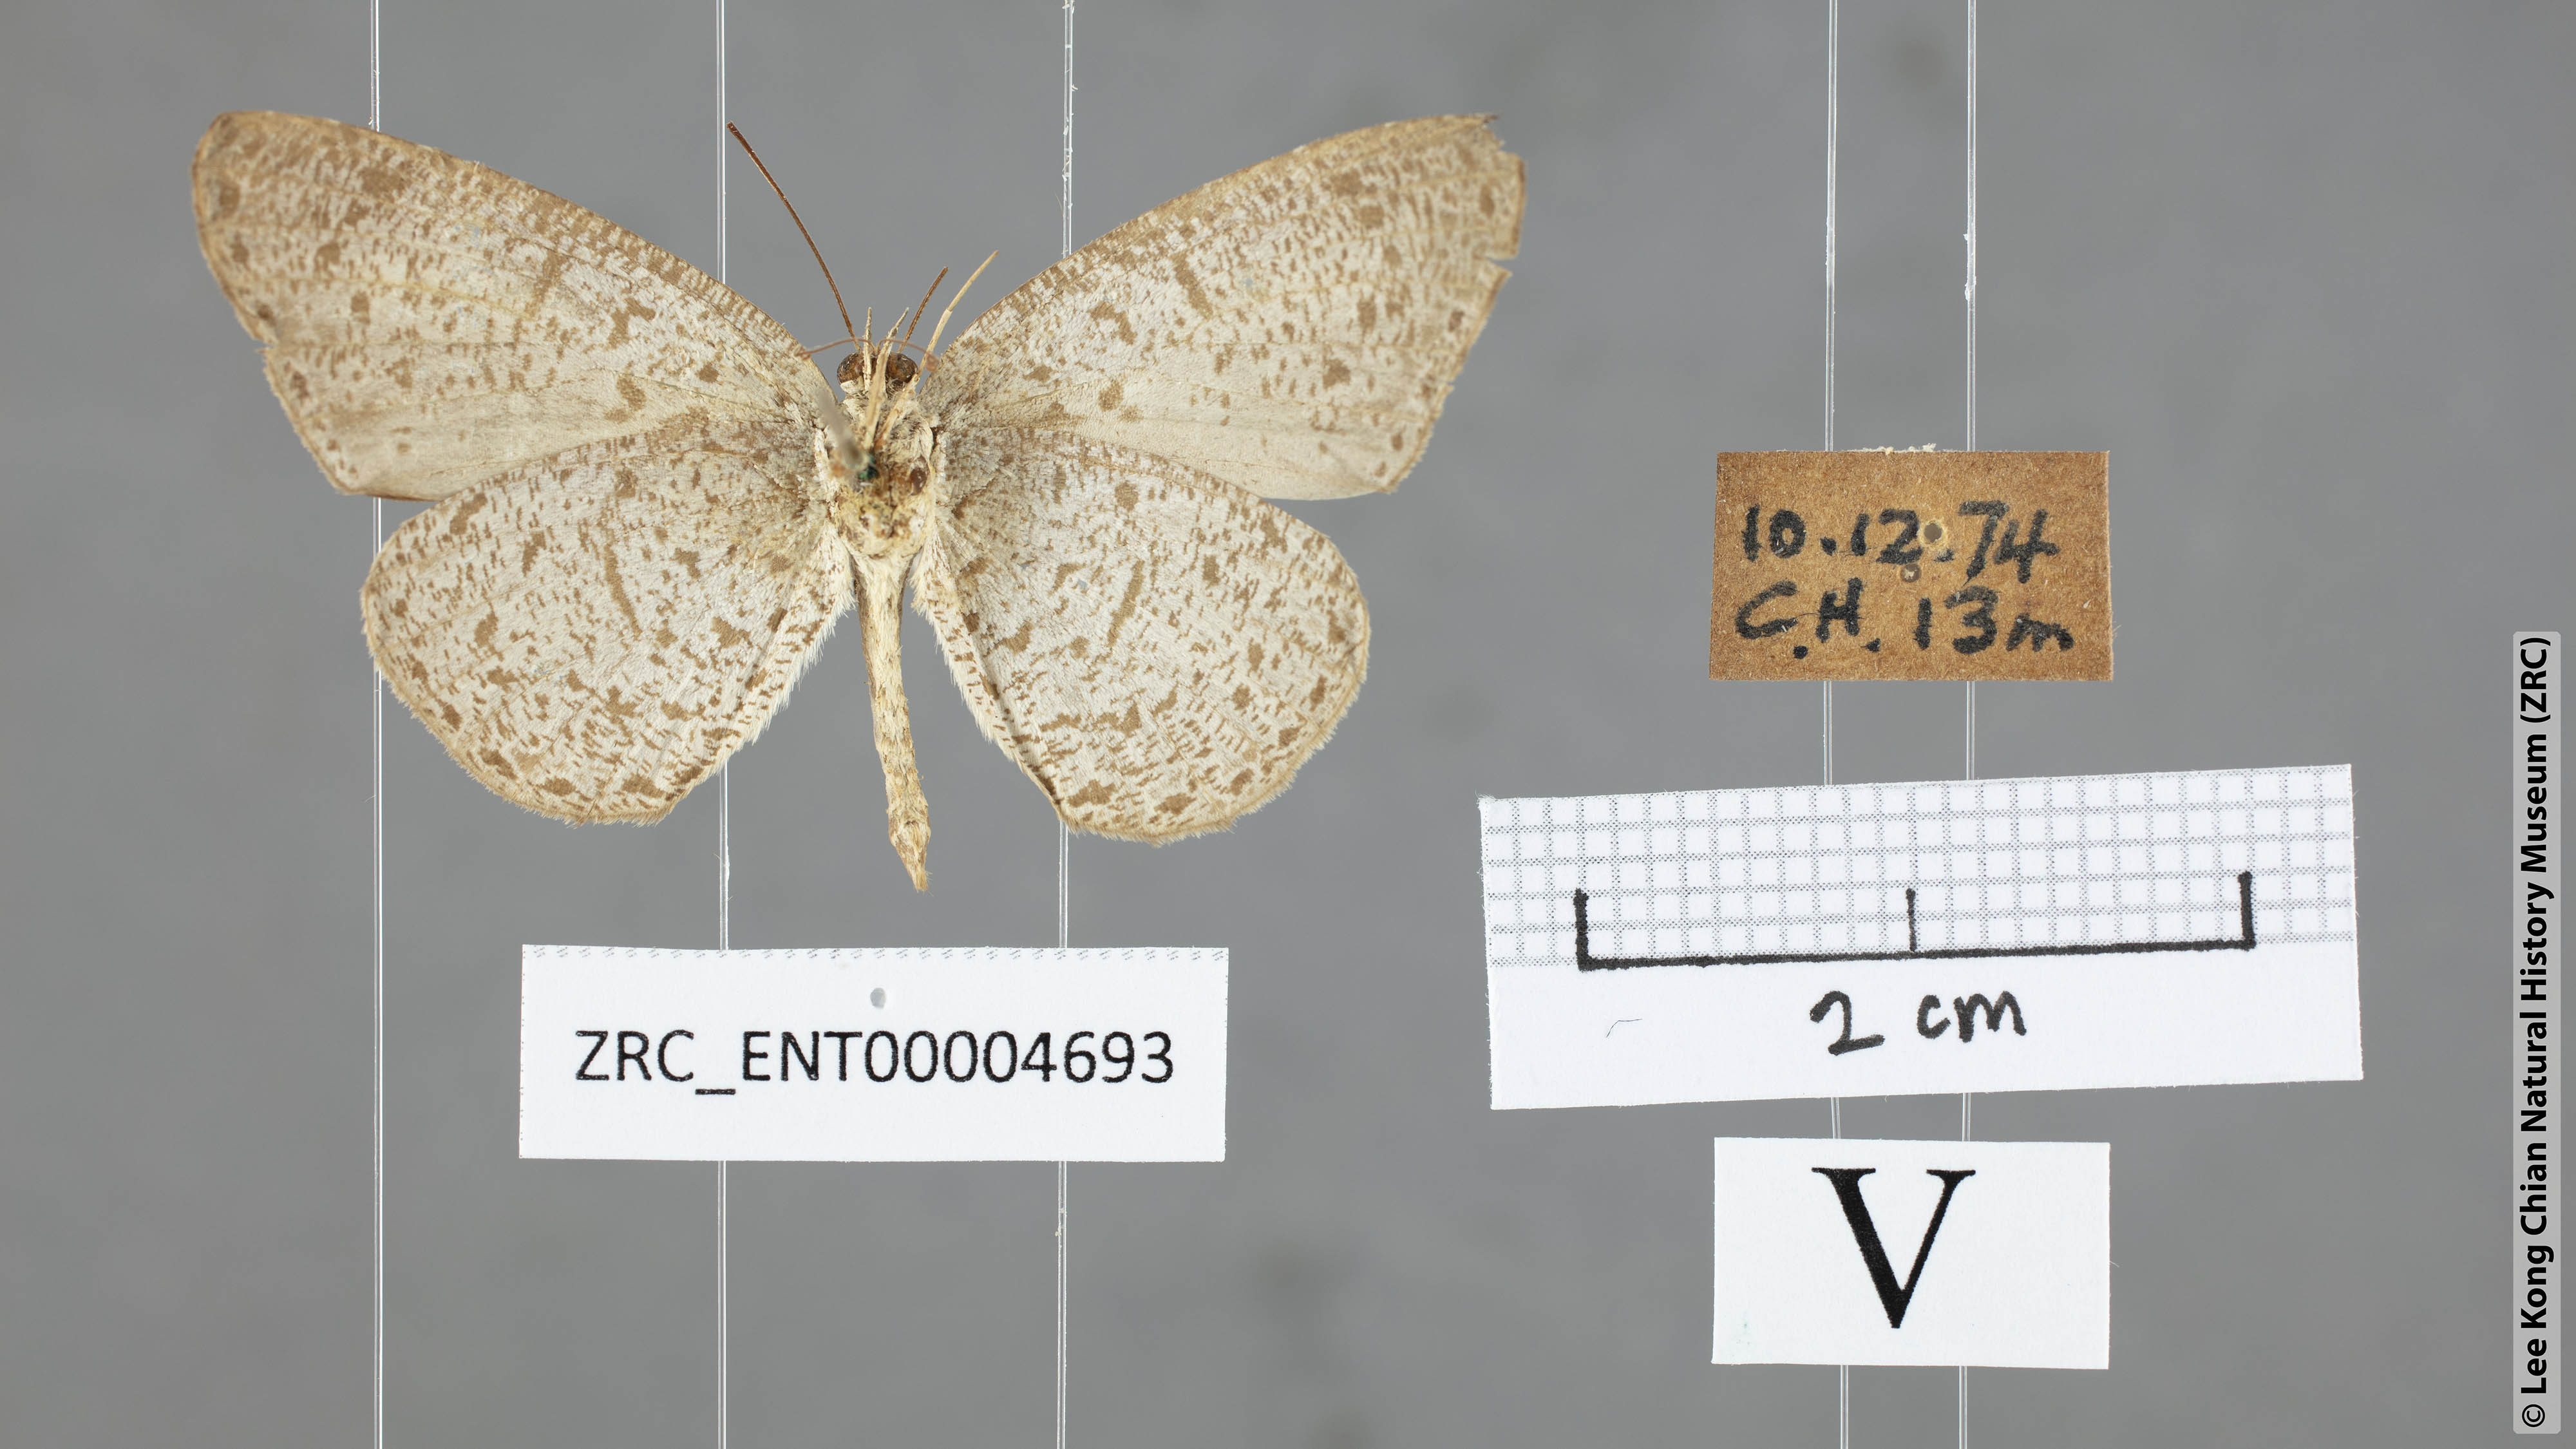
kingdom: Animalia
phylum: Arthropoda
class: Insecta
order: Lepidoptera
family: Lycaenidae
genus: Allotinus
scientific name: Allotinus leogoron
